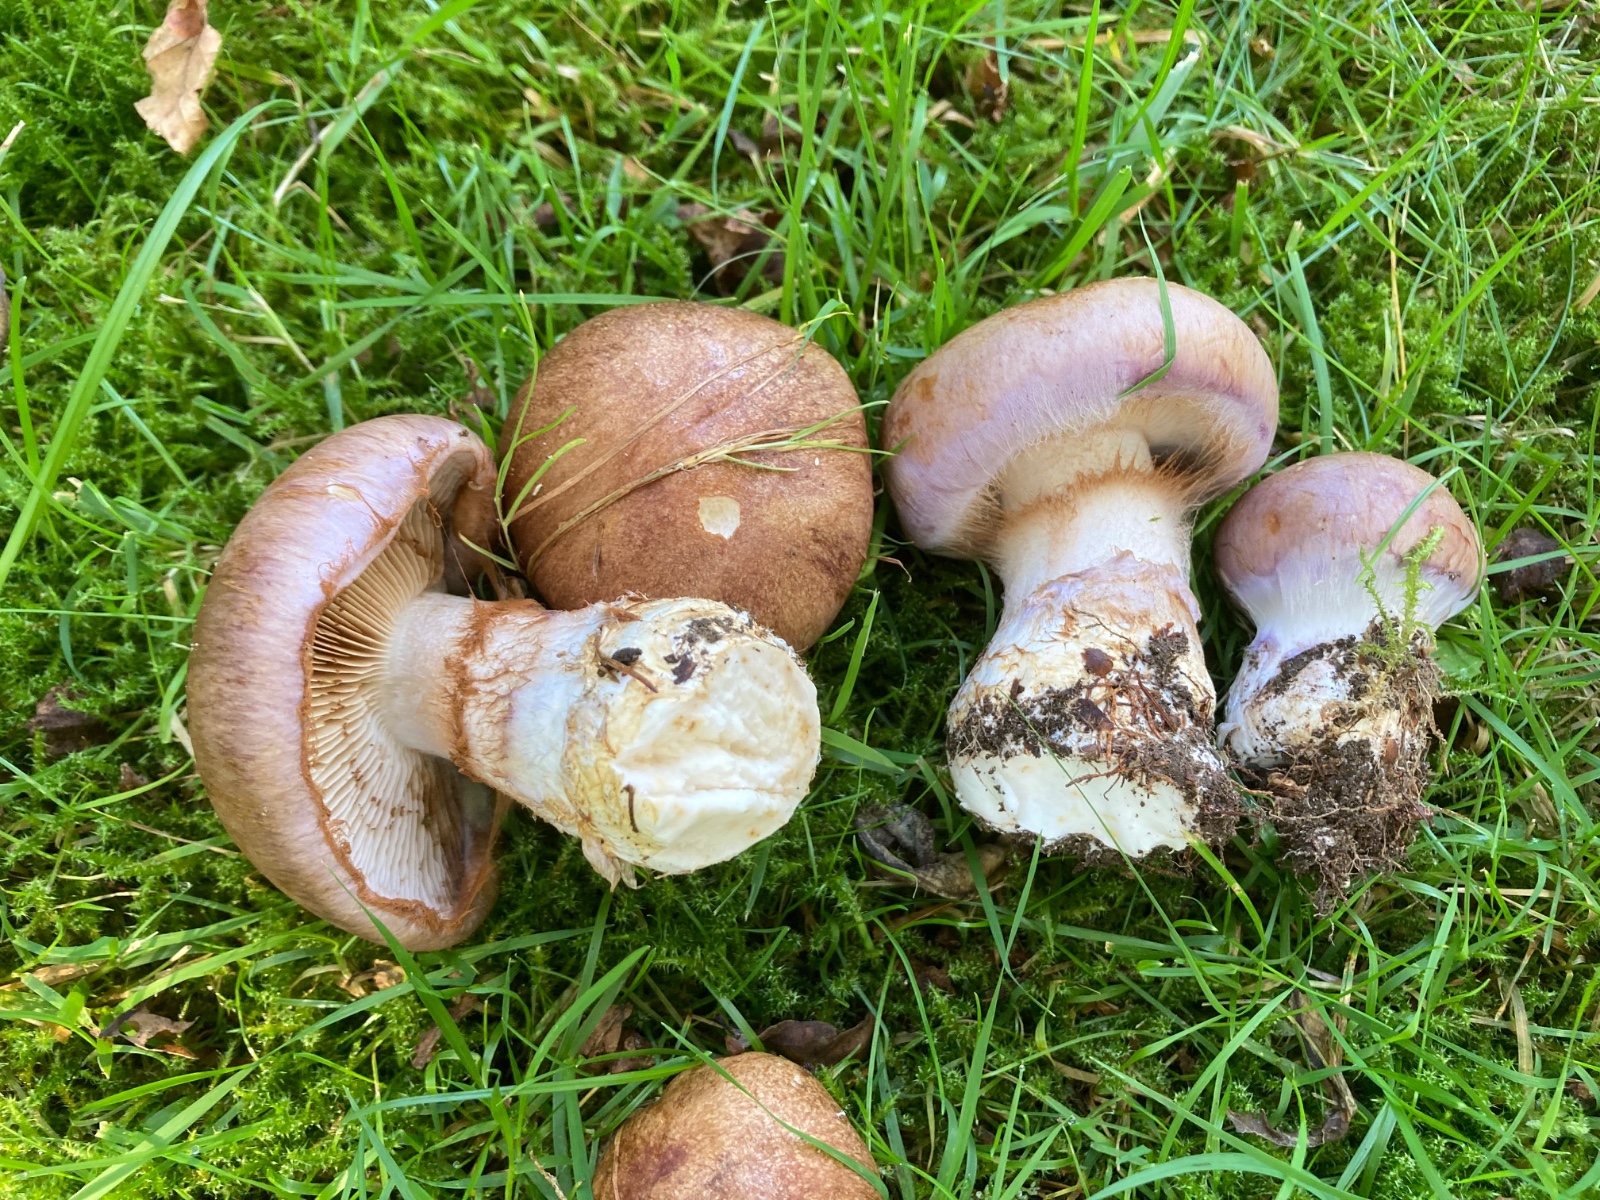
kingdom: Fungi
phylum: Basidiomycota
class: Agaricomycetes
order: Agaricales
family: Cortinariaceae
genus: Phlegmacium
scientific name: Phlegmacium balteatocumatile
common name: violettrådet slørhat
